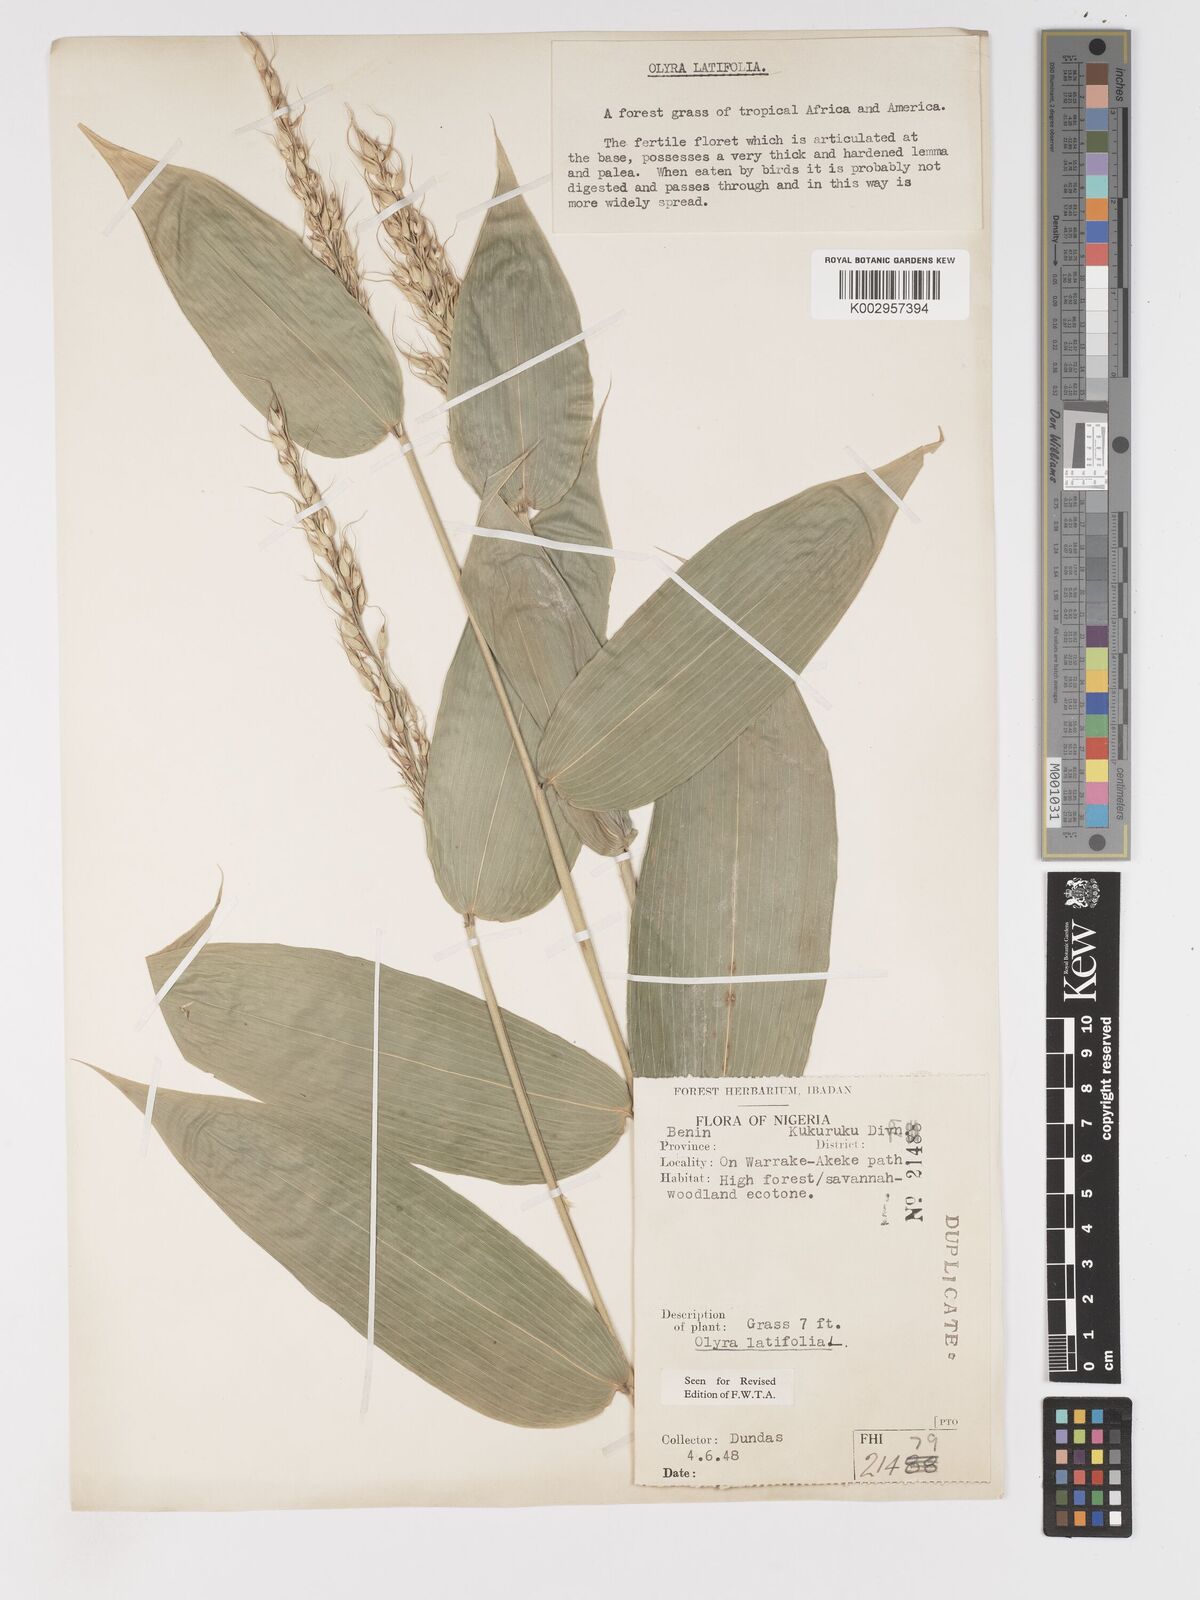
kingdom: Plantae
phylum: Tracheophyta
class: Liliopsida
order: Poales
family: Poaceae
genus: Olyra
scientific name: Olyra latifolia
